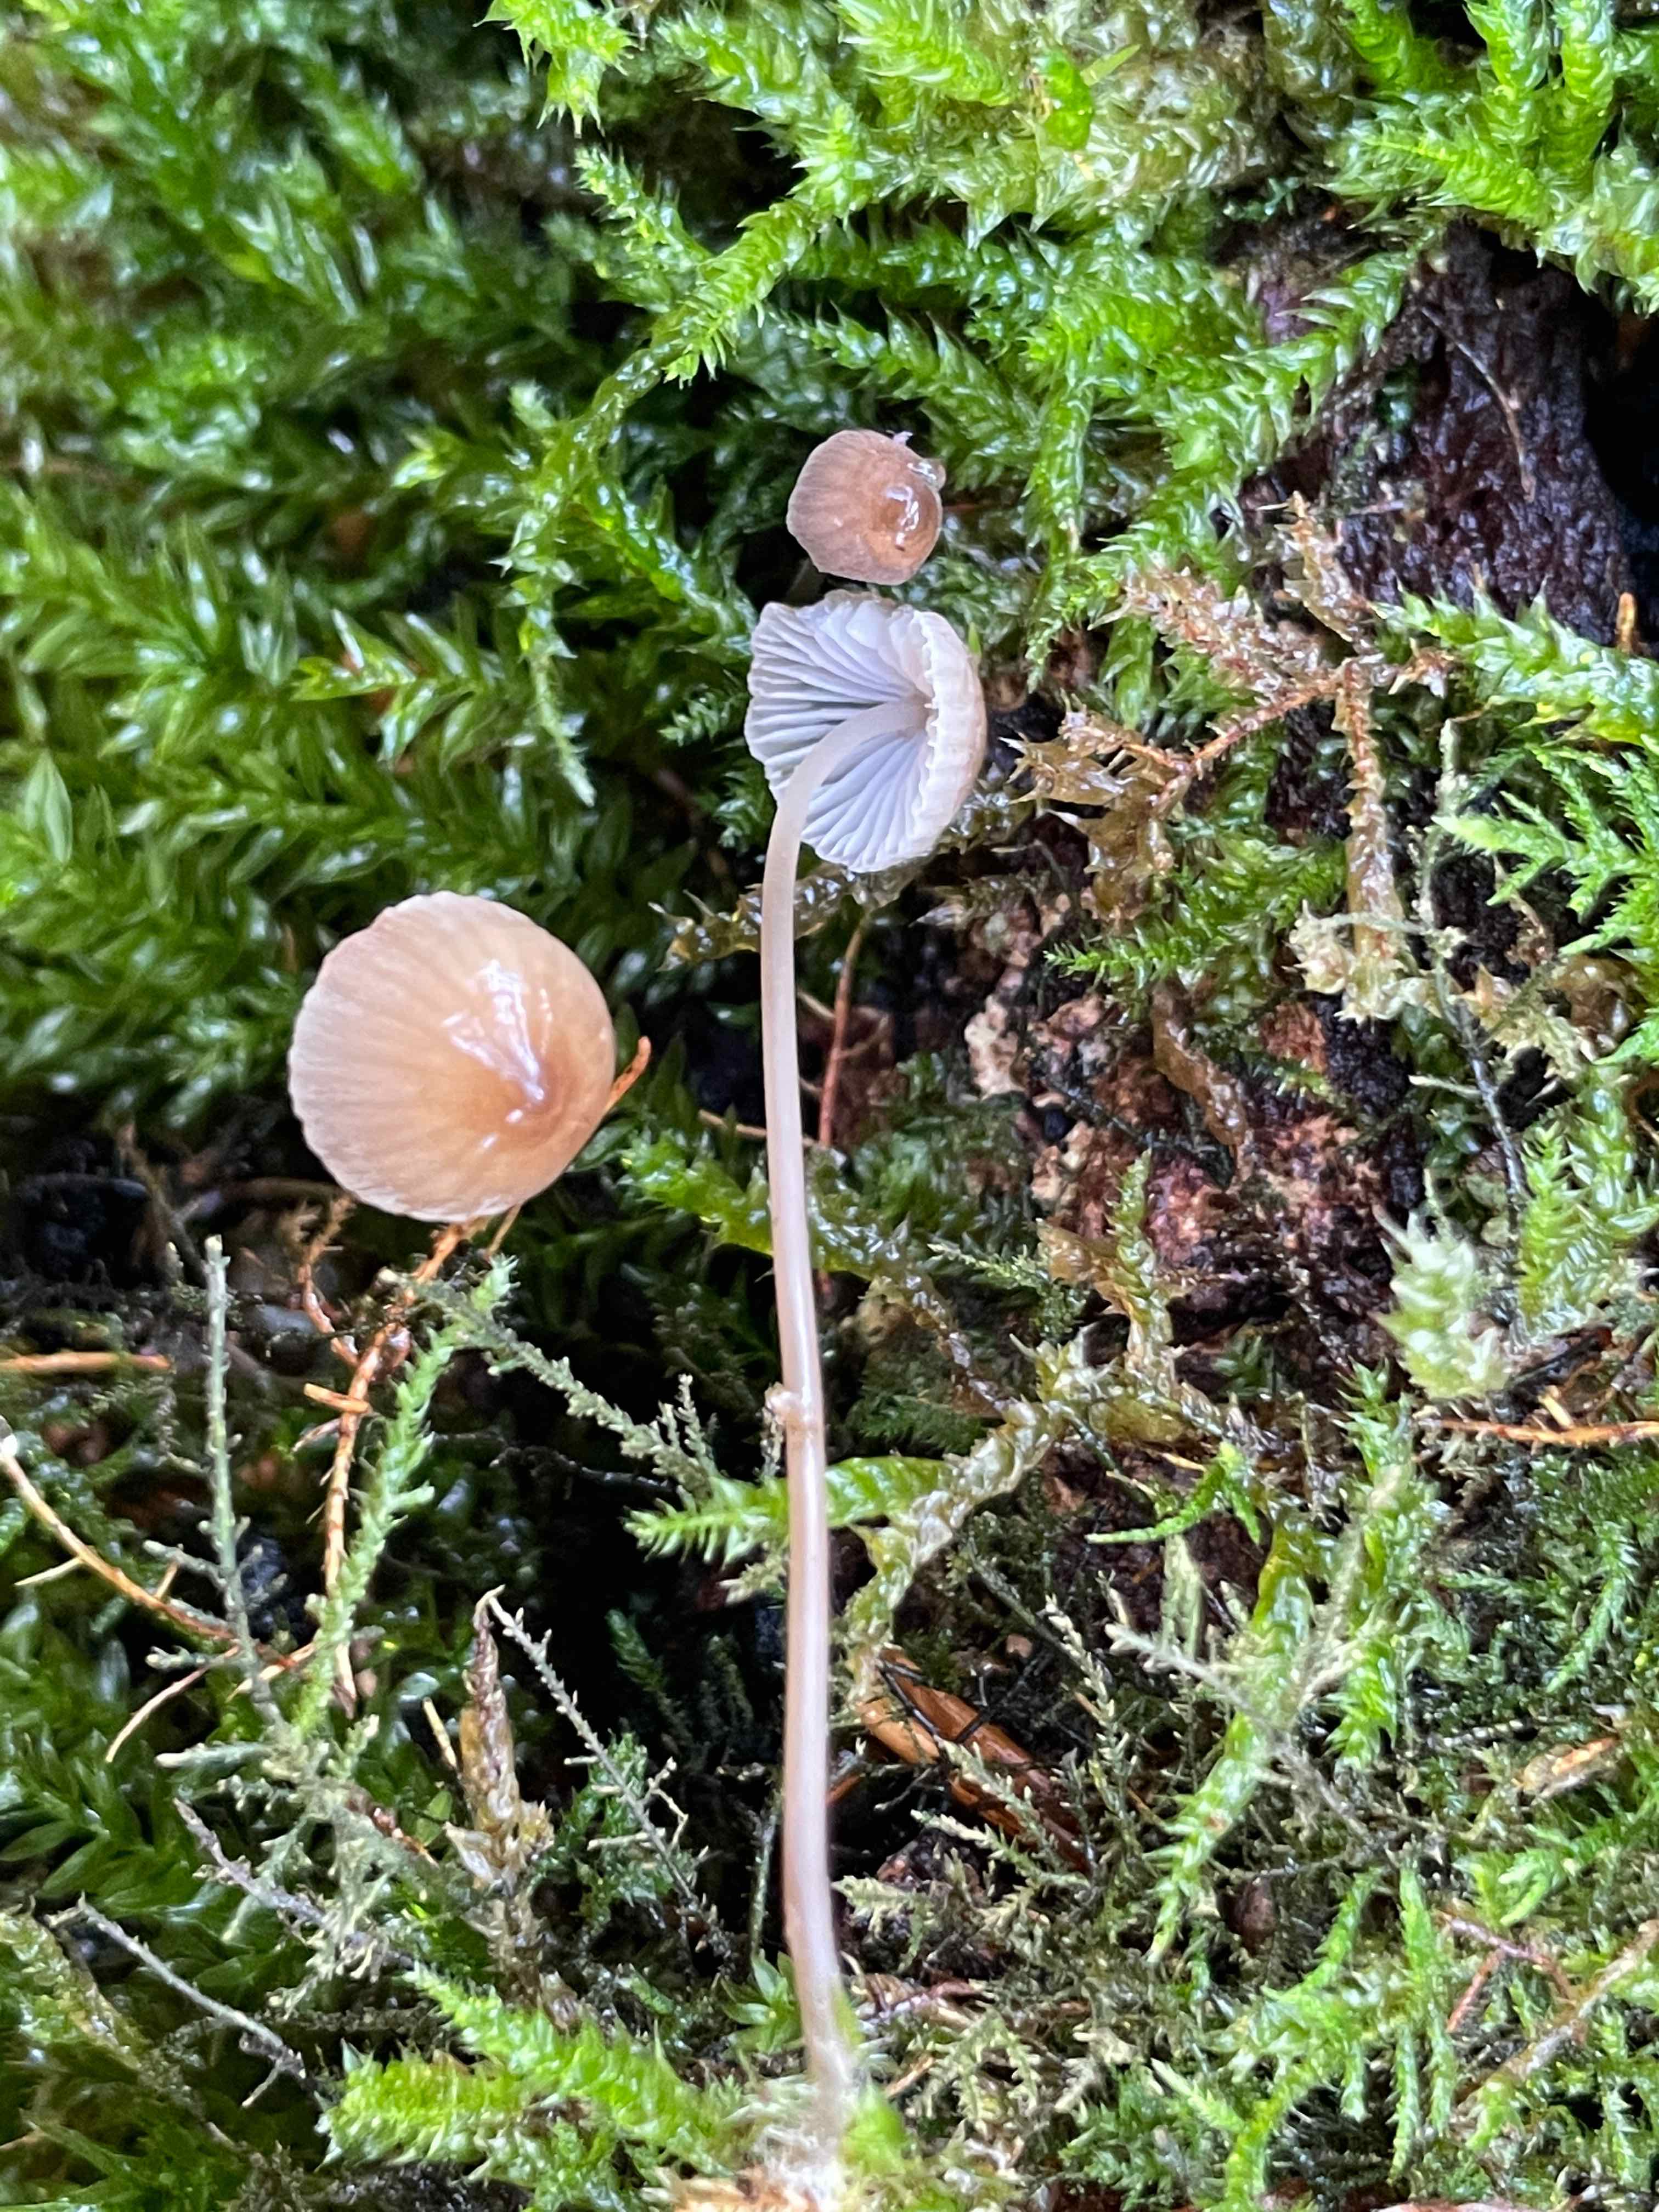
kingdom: Fungi
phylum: Basidiomycota
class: Agaricomycetes
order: Agaricales
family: Mycenaceae
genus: Mycena
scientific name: Mycena erubescens
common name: galde-huesvamp
